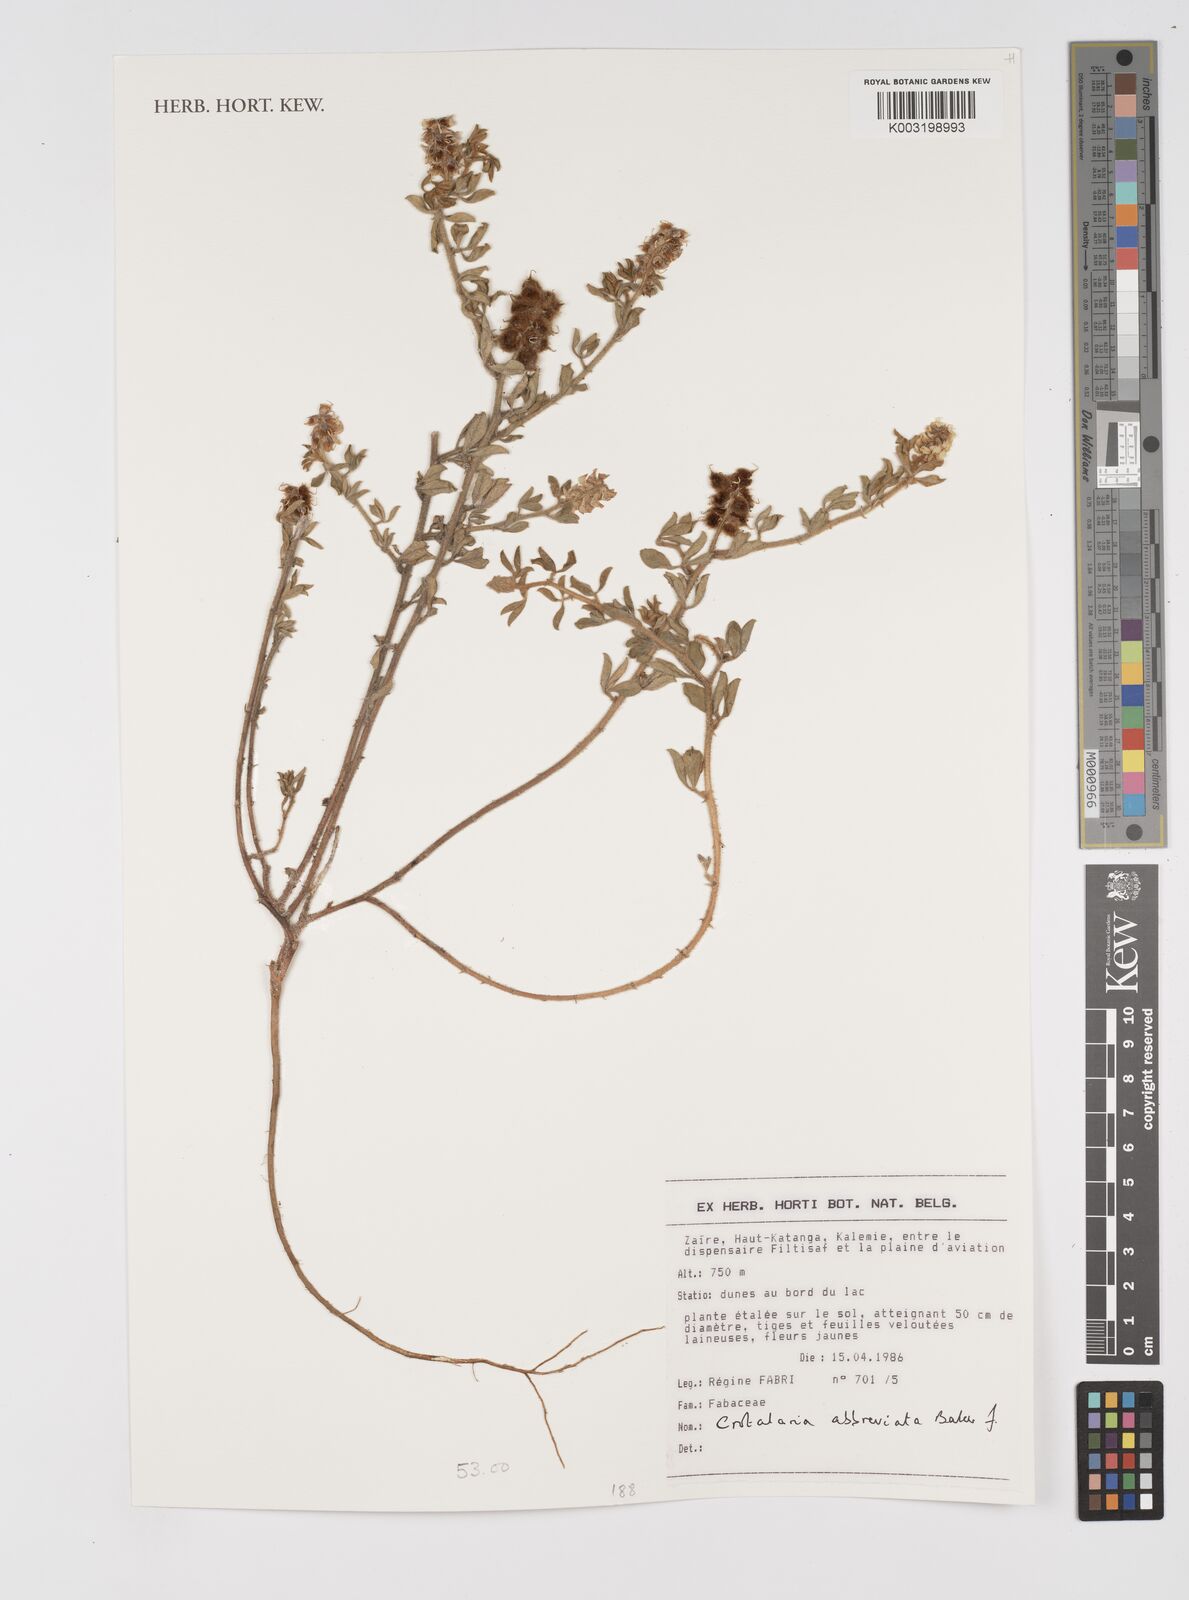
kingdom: Plantae
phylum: Tracheophyta
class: Magnoliopsida
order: Fabales
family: Fabaceae
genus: Crotalaria
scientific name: Crotalaria abbreviata
